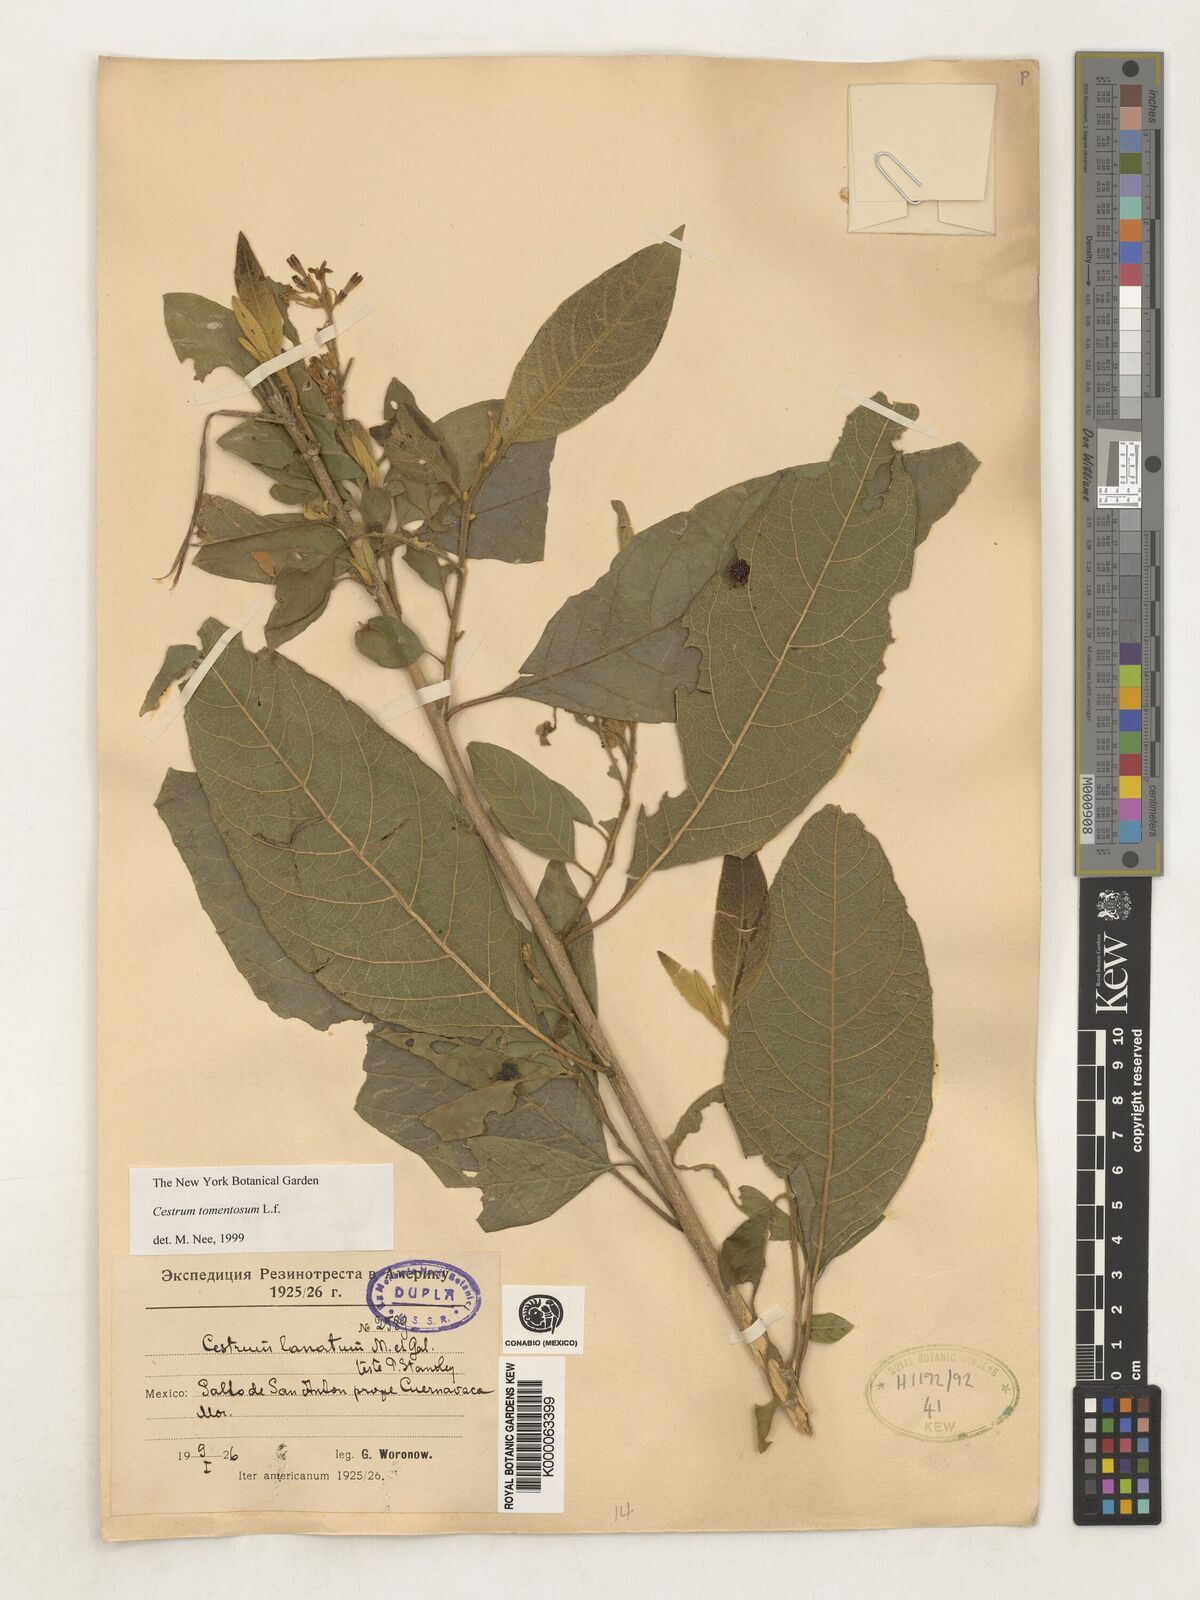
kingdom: Plantae
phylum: Tracheophyta
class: Magnoliopsida
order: Solanales
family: Solanaceae
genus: Cestrum
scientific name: Cestrum tomentosum
